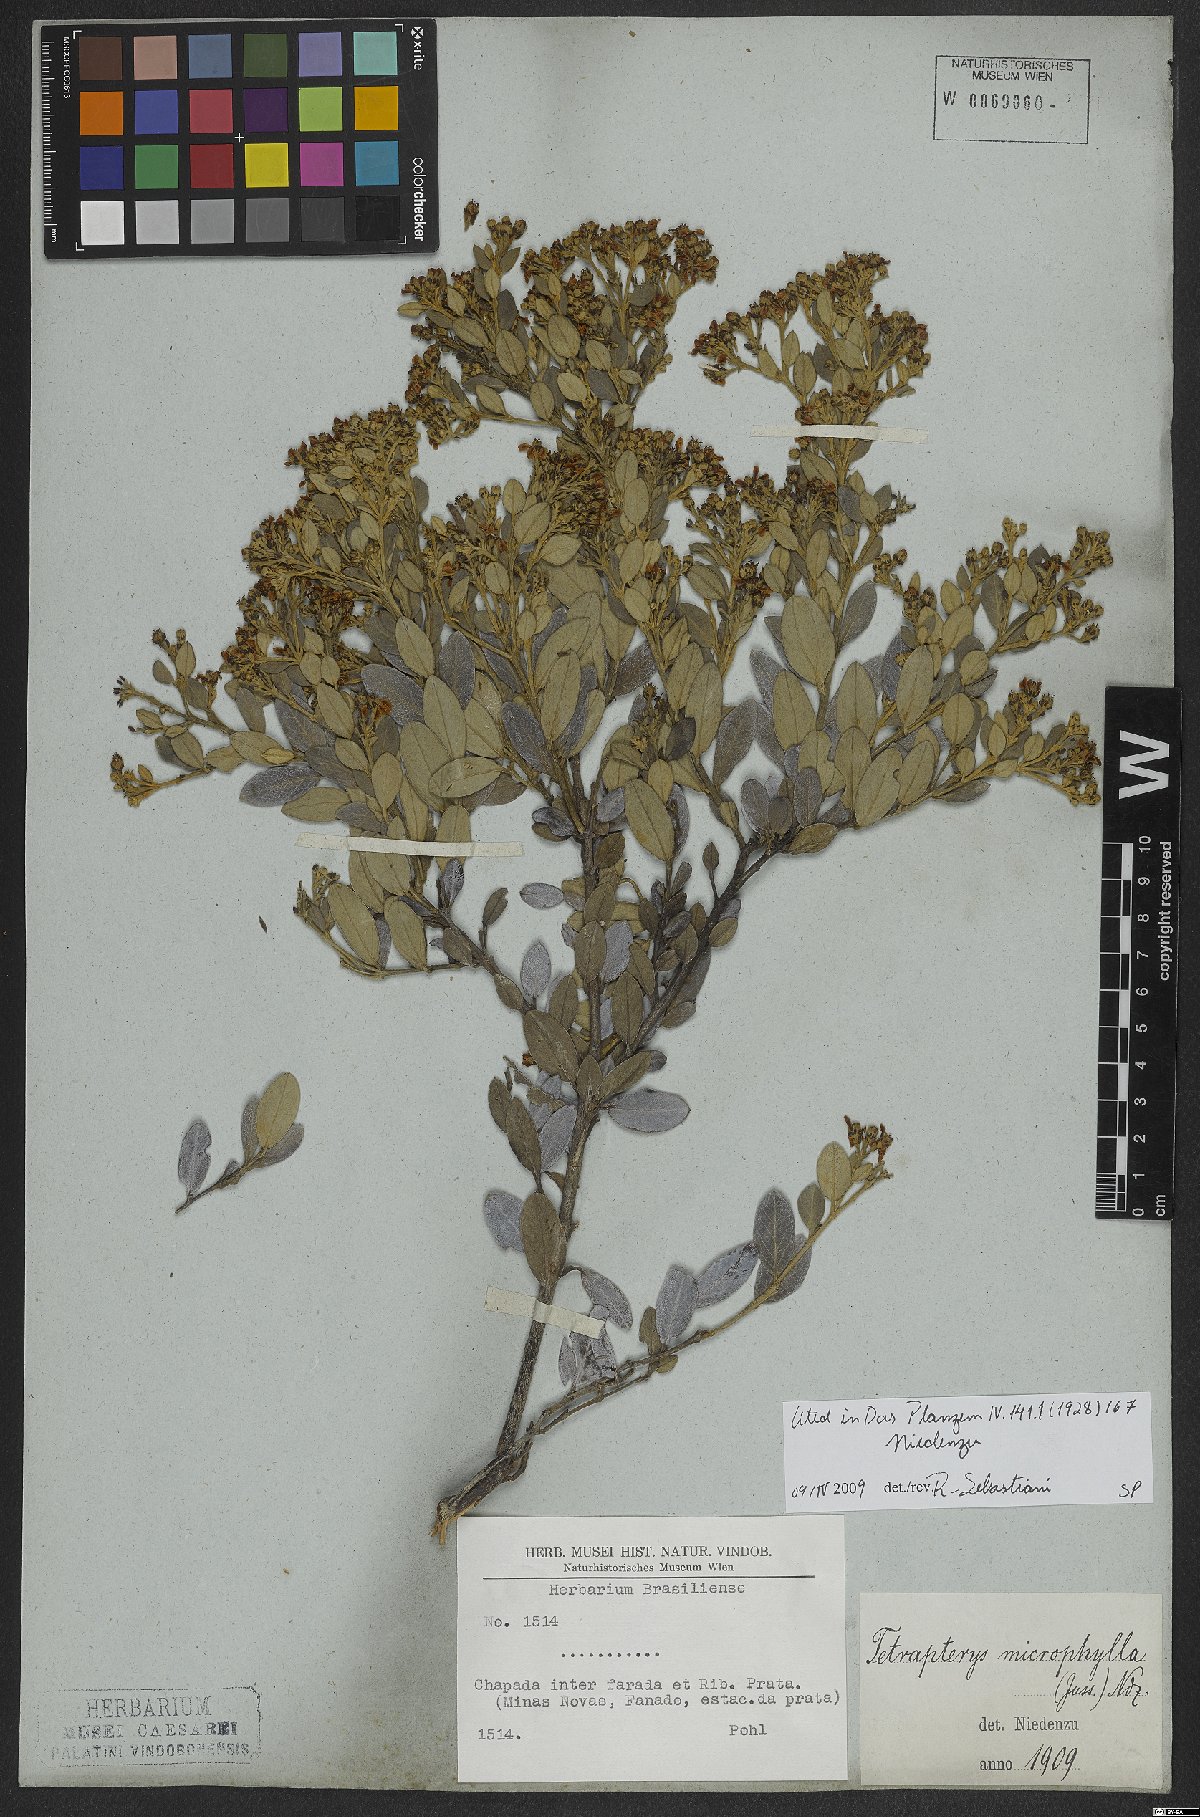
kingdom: Plantae
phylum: Tracheophyta
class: Magnoliopsida
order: Malpighiales
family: Malpighiaceae
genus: Glicophyllum
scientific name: Glicophyllum microphyllum
